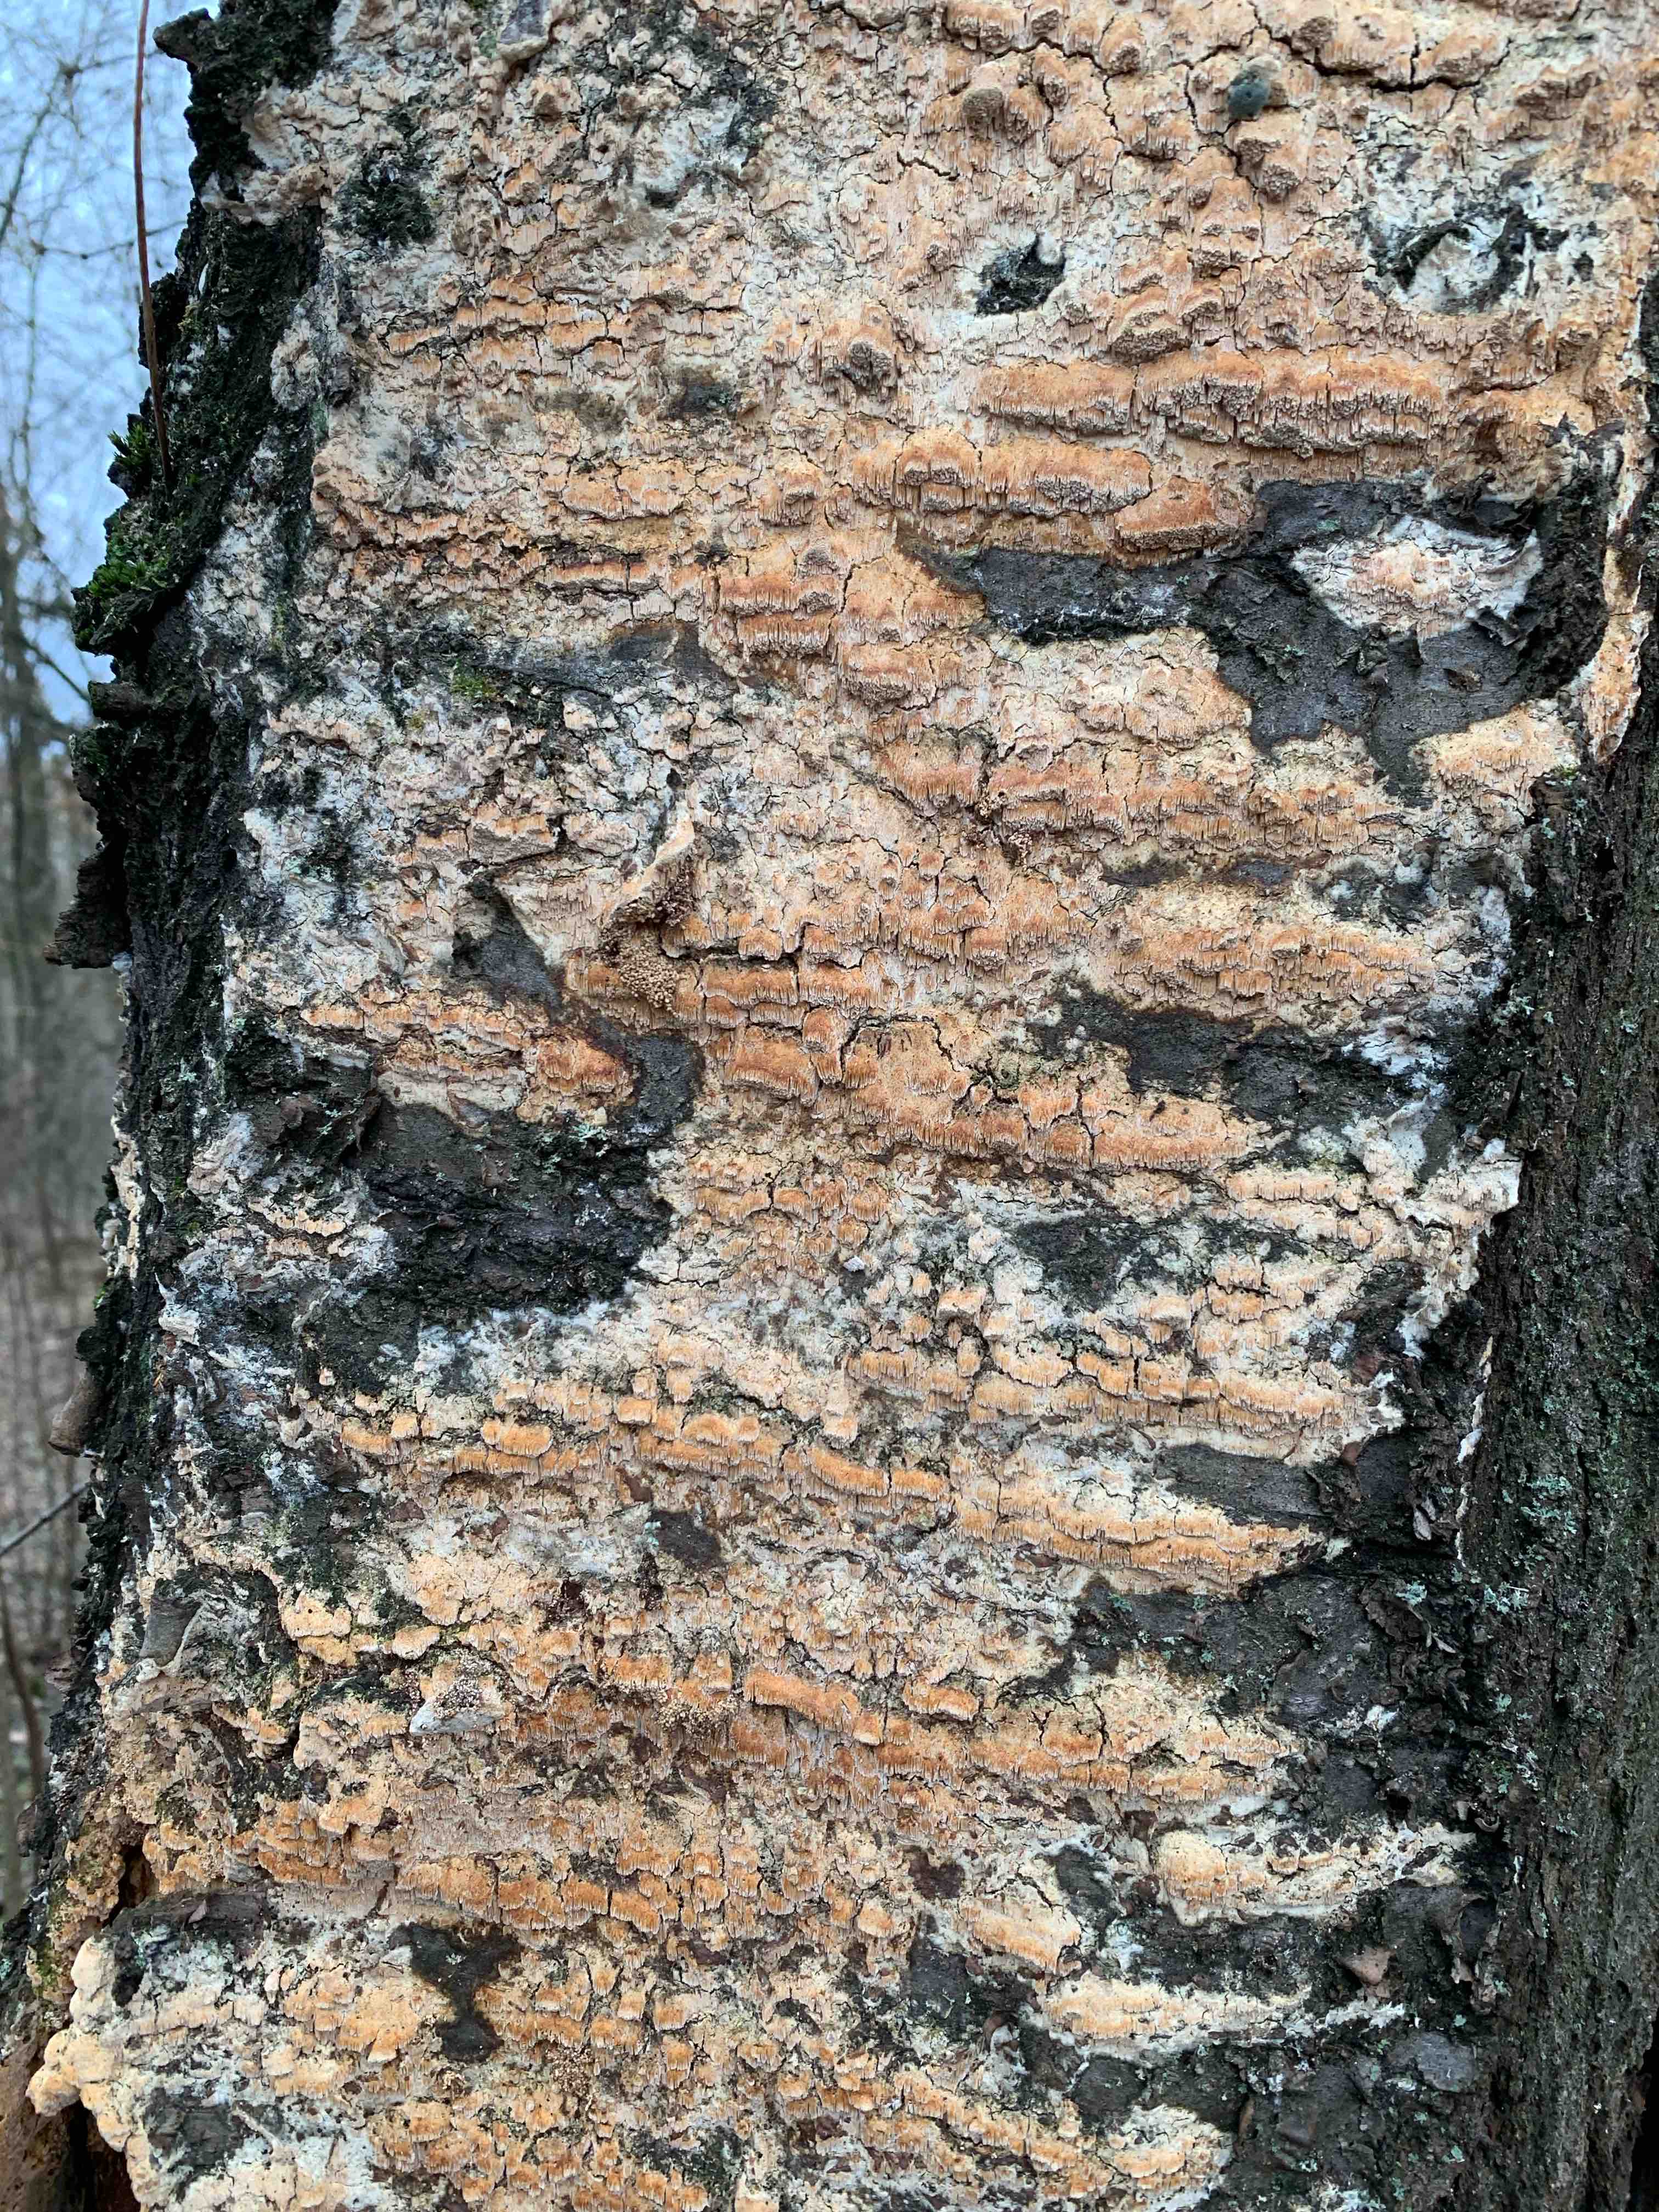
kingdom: Fungi
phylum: Basidiomycota
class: Agaricomycetes
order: Polyporales
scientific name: Polyporales
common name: poresvampordenen
